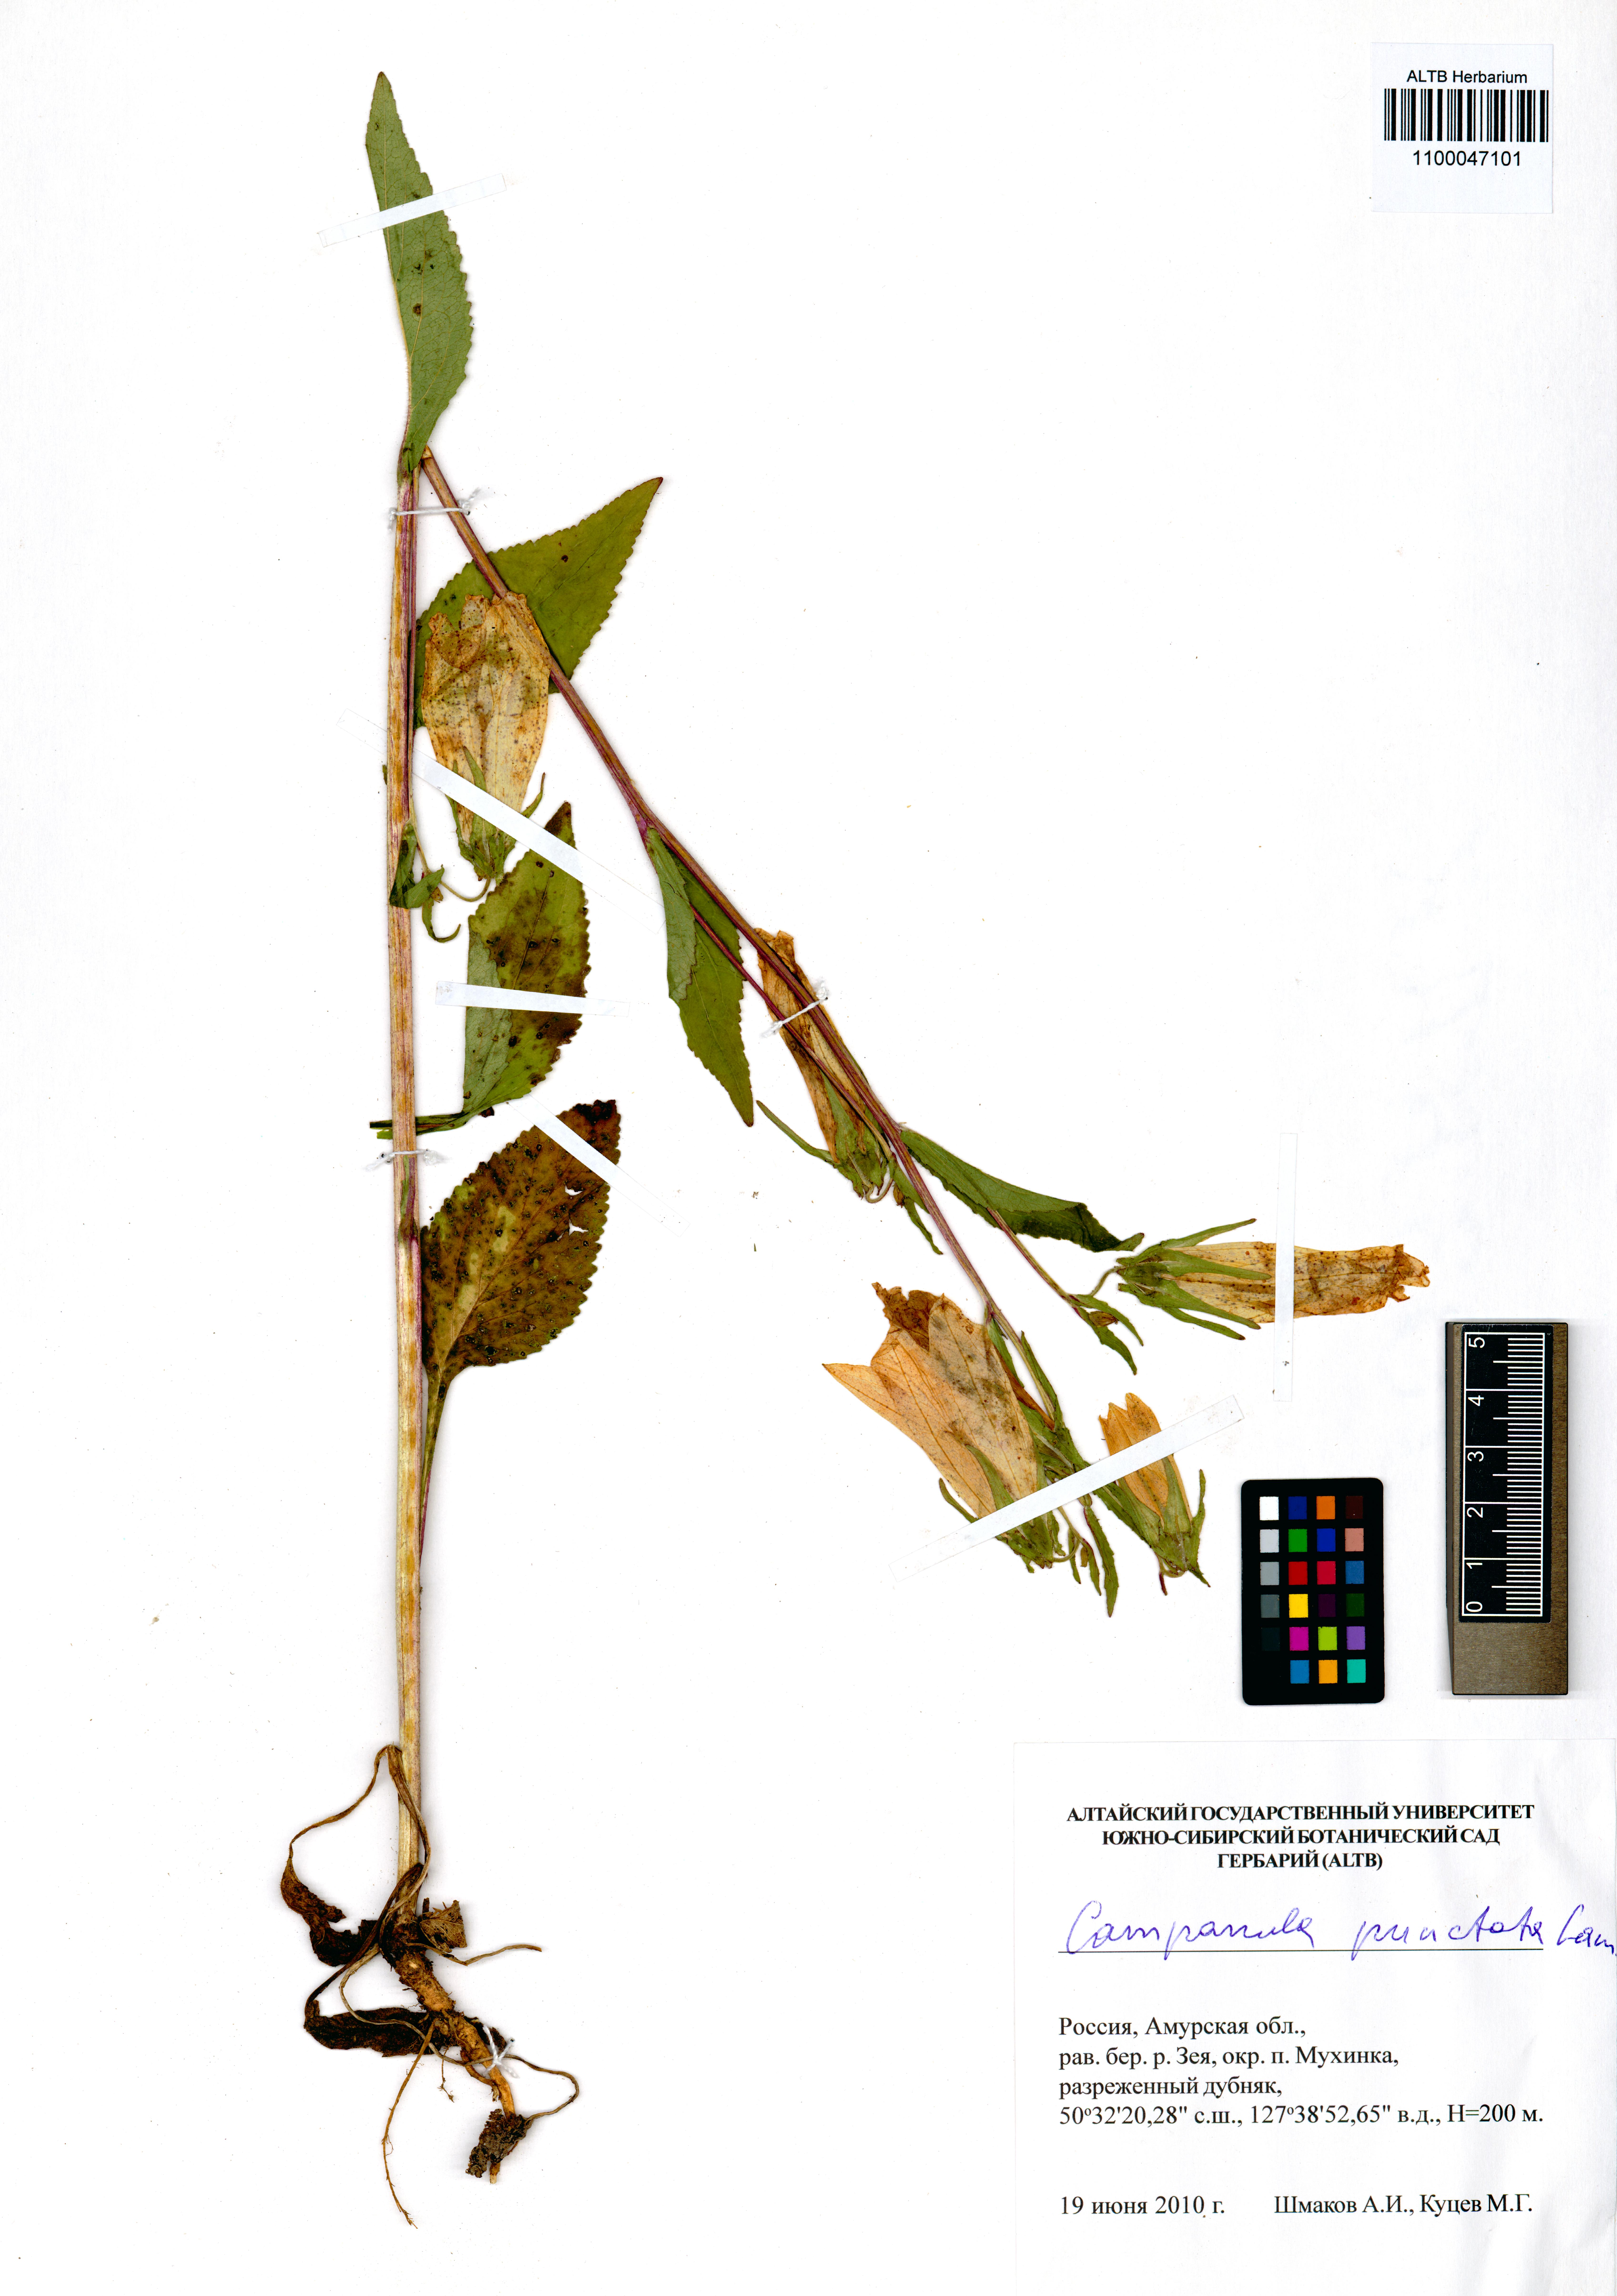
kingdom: Plantae
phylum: Tracheophyta
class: Magnoliopsida
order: Asterales
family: Campanulaceae
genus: Campanula
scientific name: Campanula punctata
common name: Spotted bellflower
